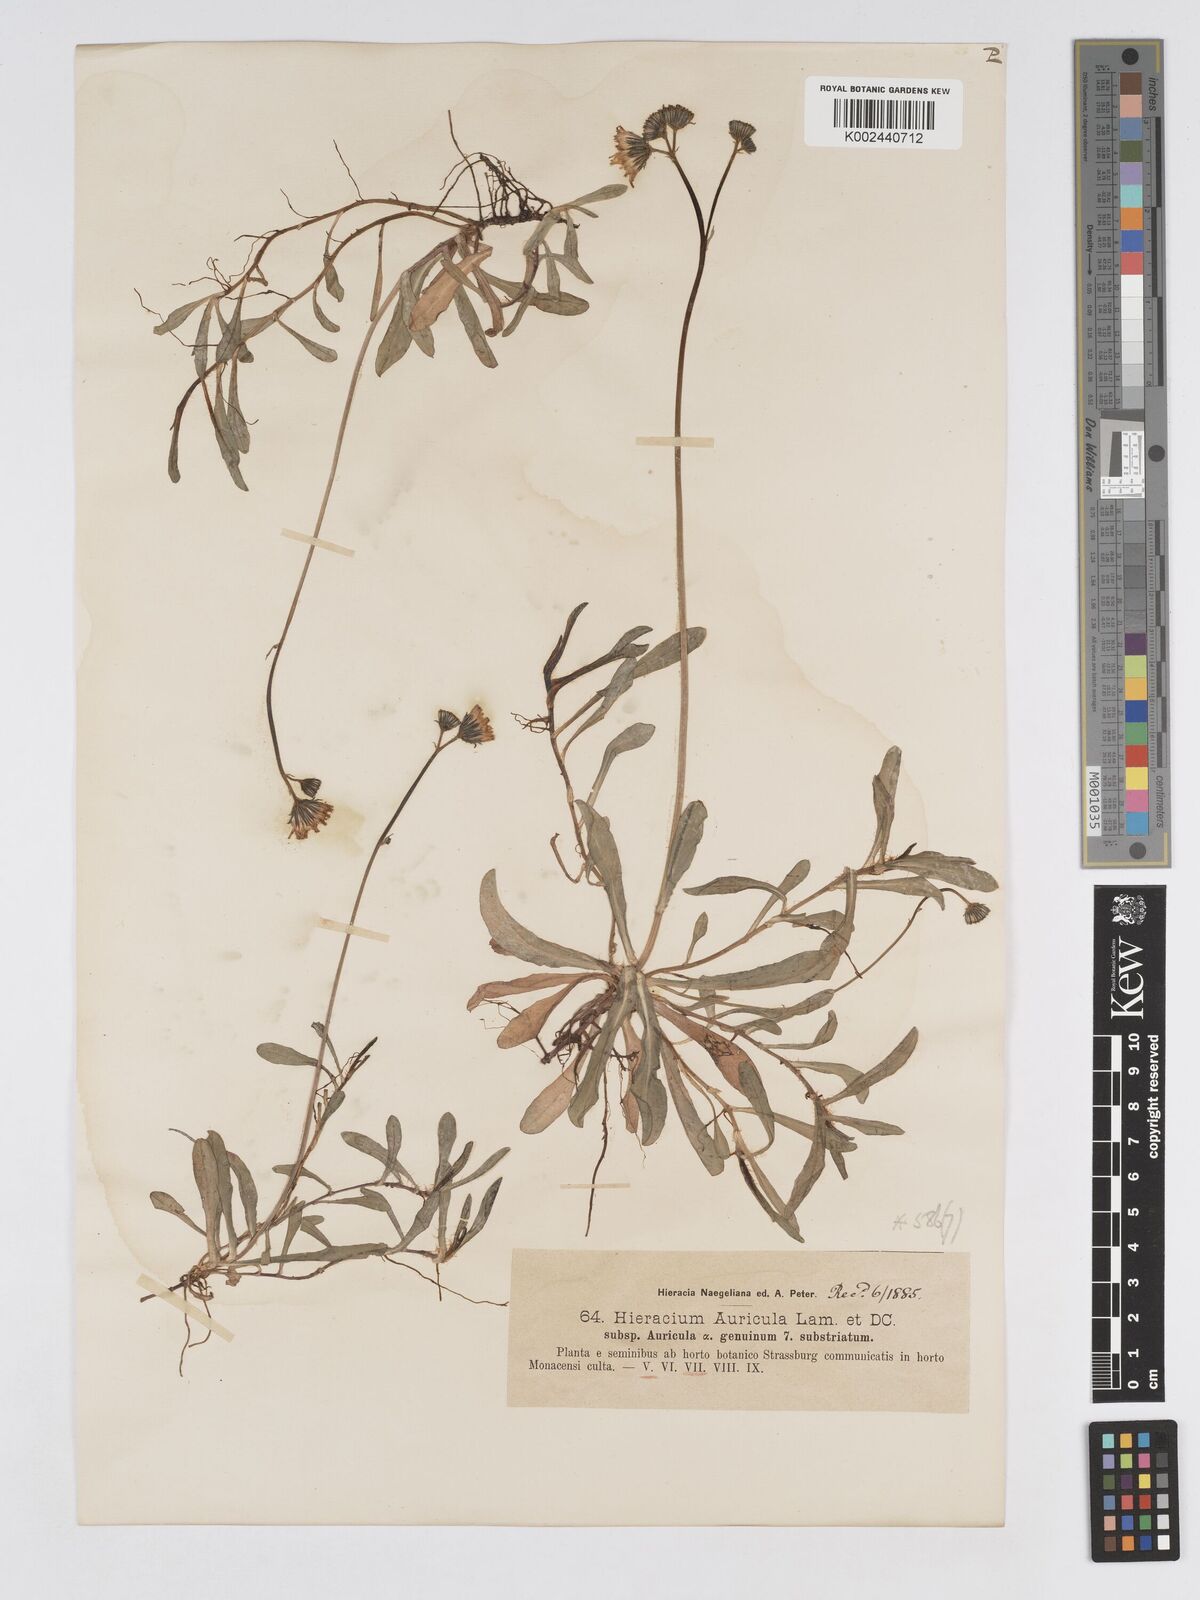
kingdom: Plantae
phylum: Tracheophyta
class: Magnoliopsida
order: Asterales
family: Asteraceae
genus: Pilosella
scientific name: Pilosella floribunda
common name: Glaucous hawkweed
